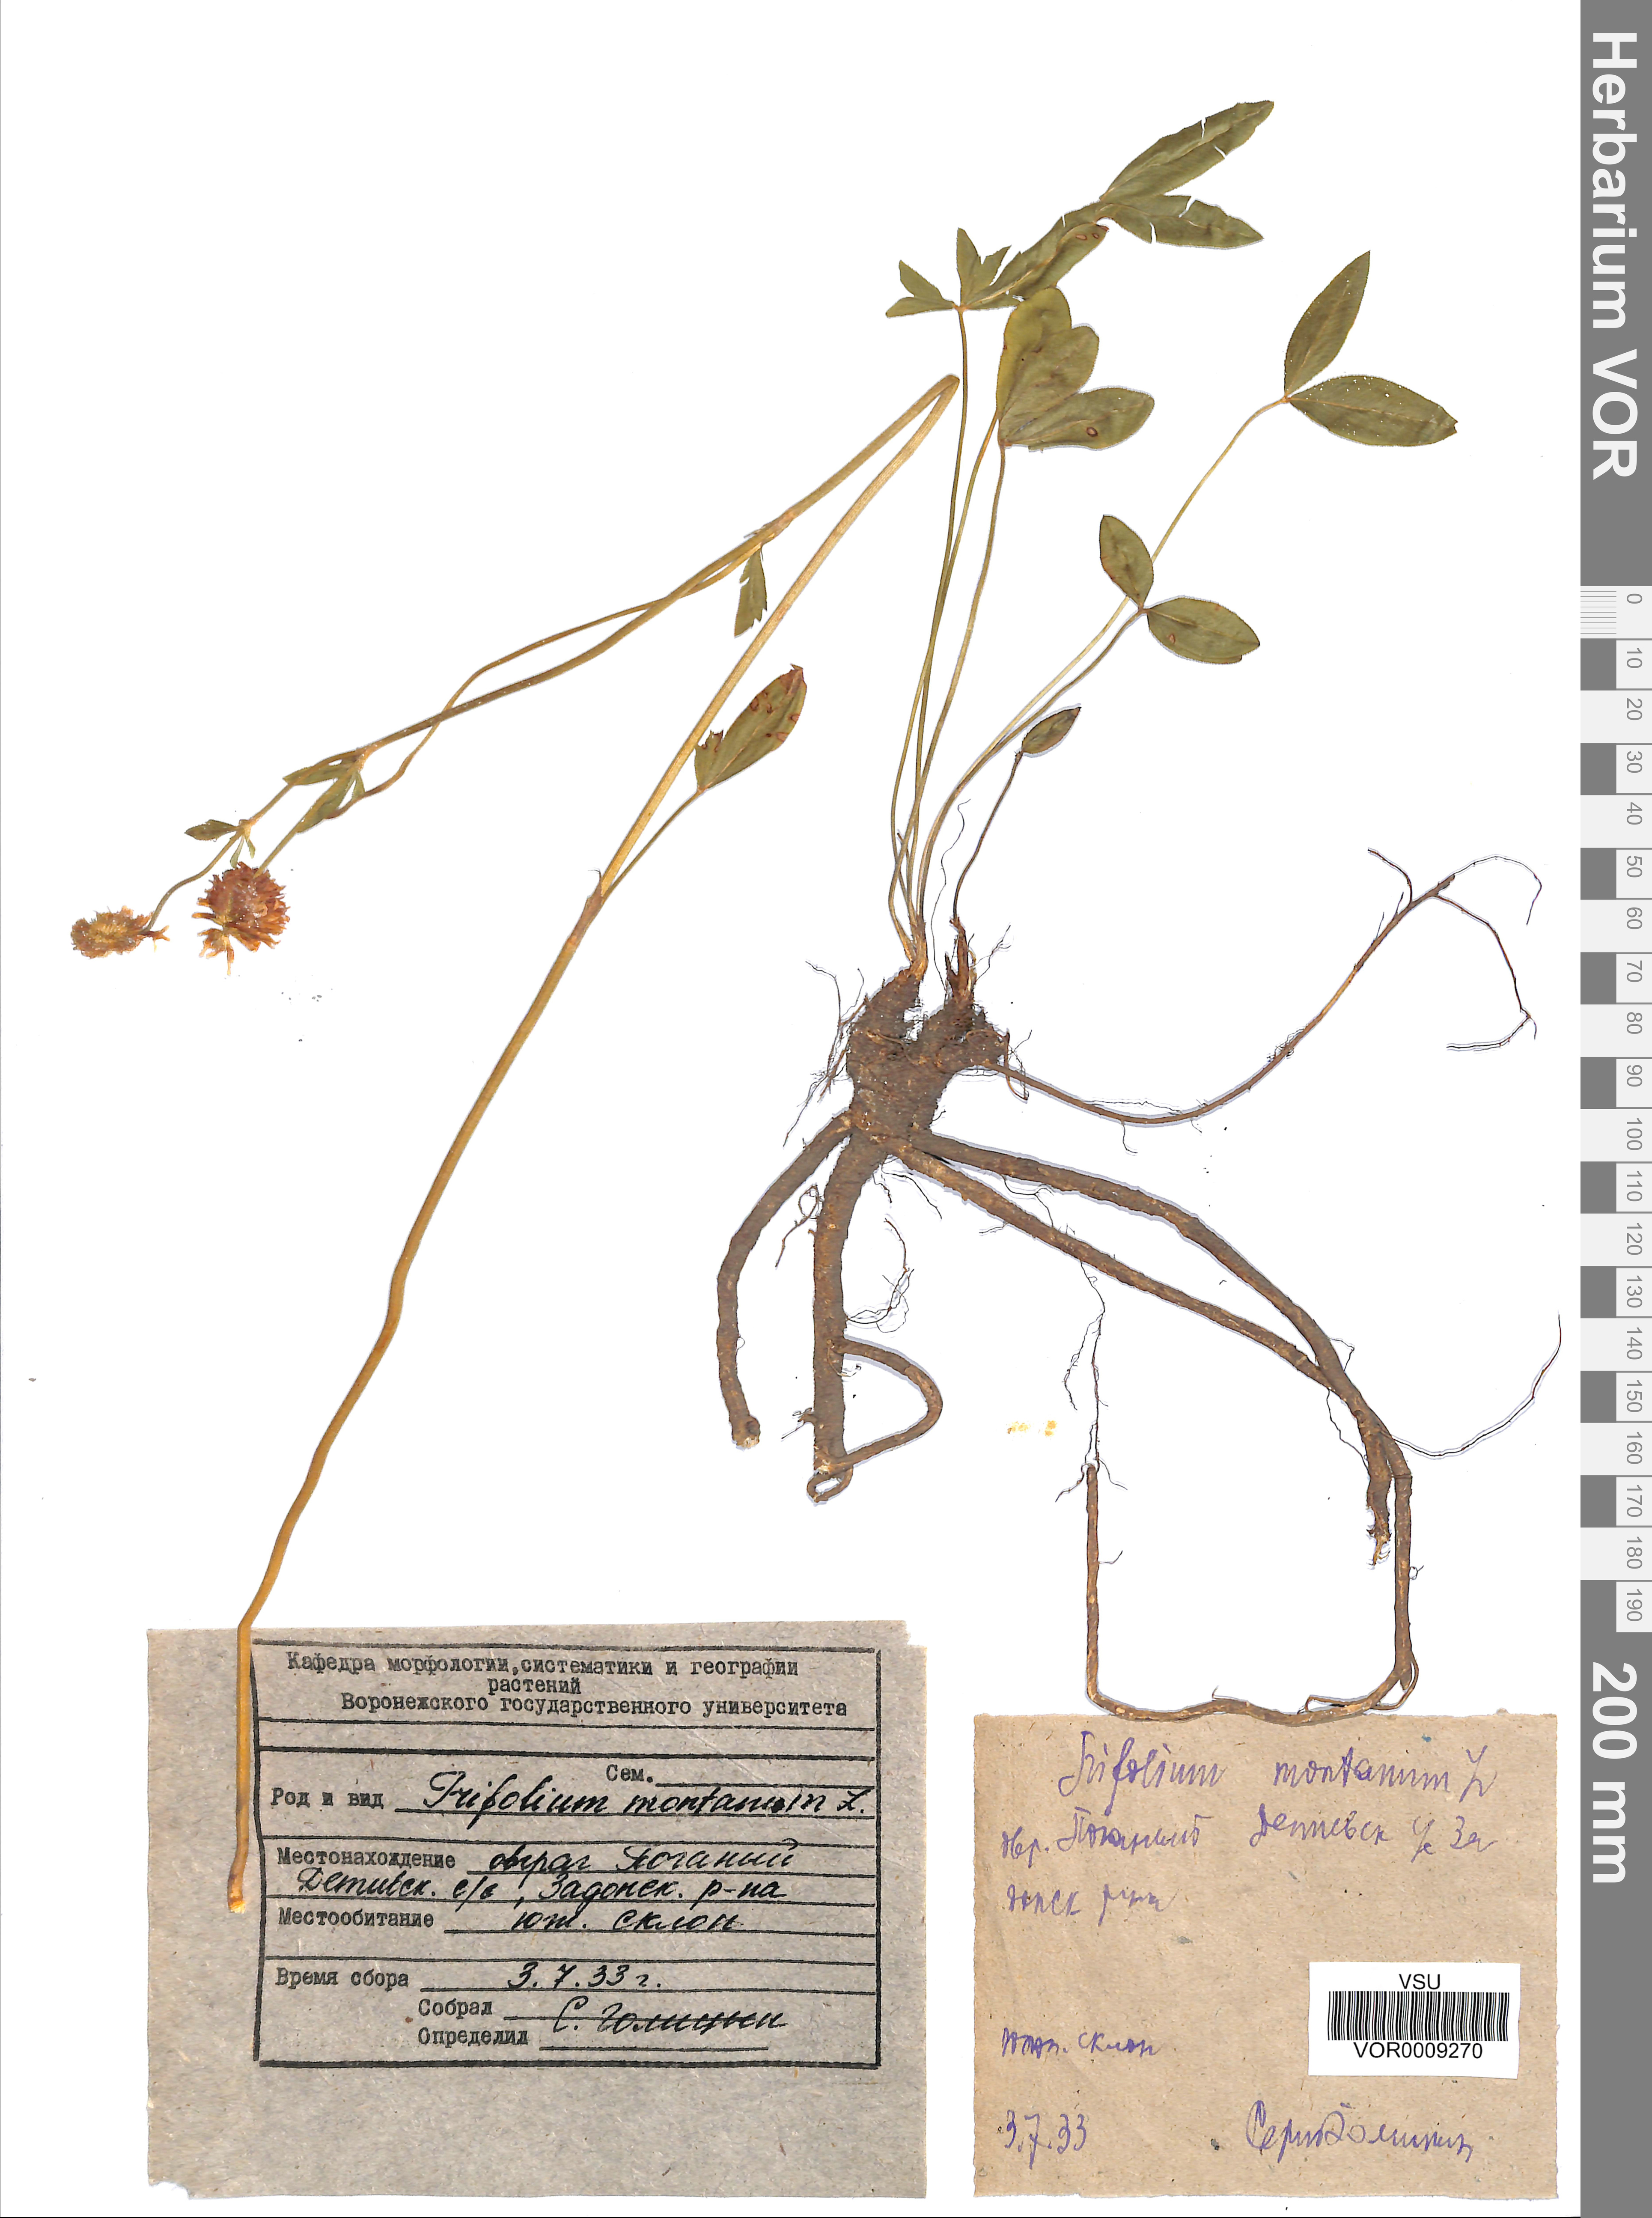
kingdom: Plantae
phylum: Tracheophyta
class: Magnoliopsida
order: Fabales
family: Fabaceae
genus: Trifolium
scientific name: Trifolium montanum
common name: Mountain clover
